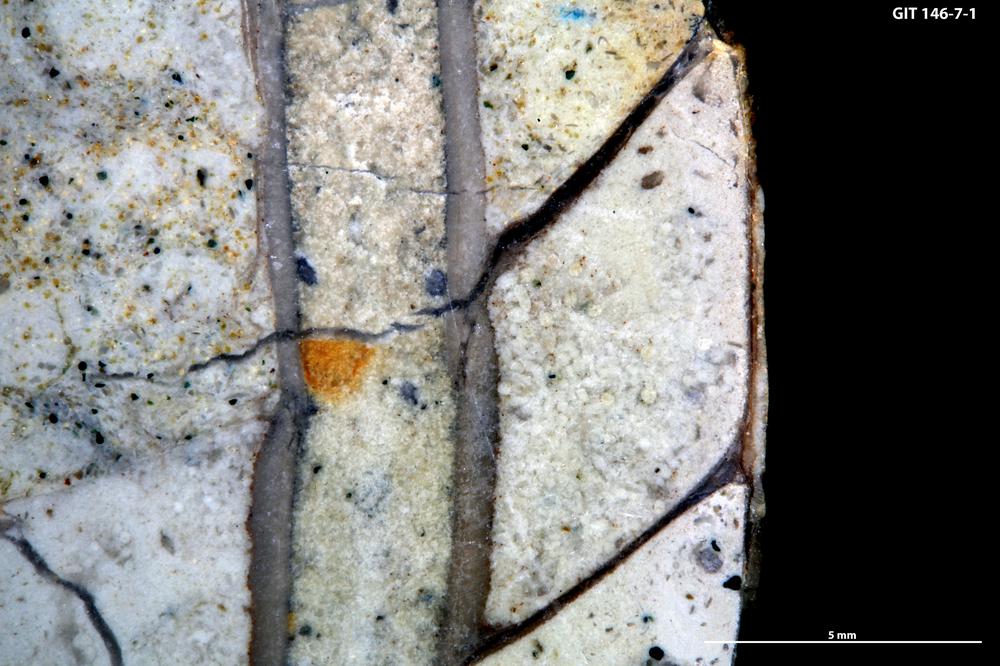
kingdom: Animalia
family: Coprulidae
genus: Coprulus
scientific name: Coprulus
